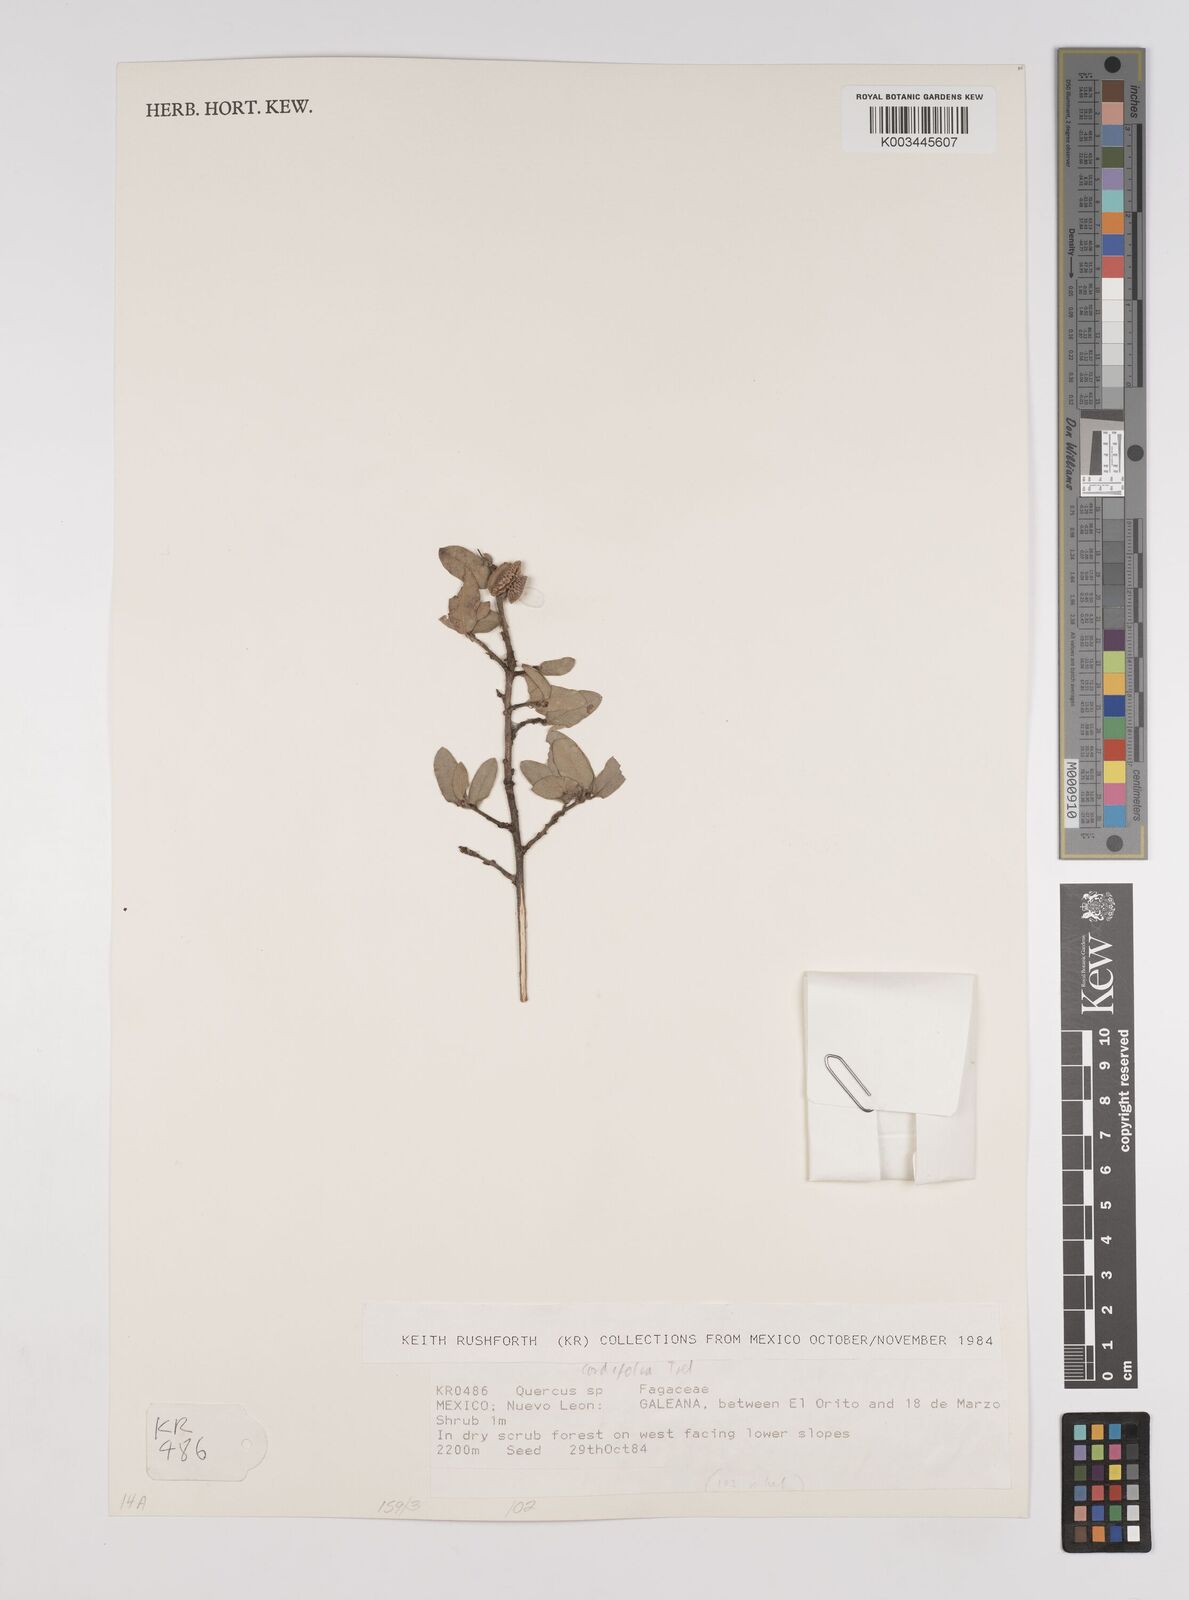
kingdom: Plantae
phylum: Tracheophyta
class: Magnoliopsida
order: Fagales
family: Fagaceae
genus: Quercus
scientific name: Quercus striatula
